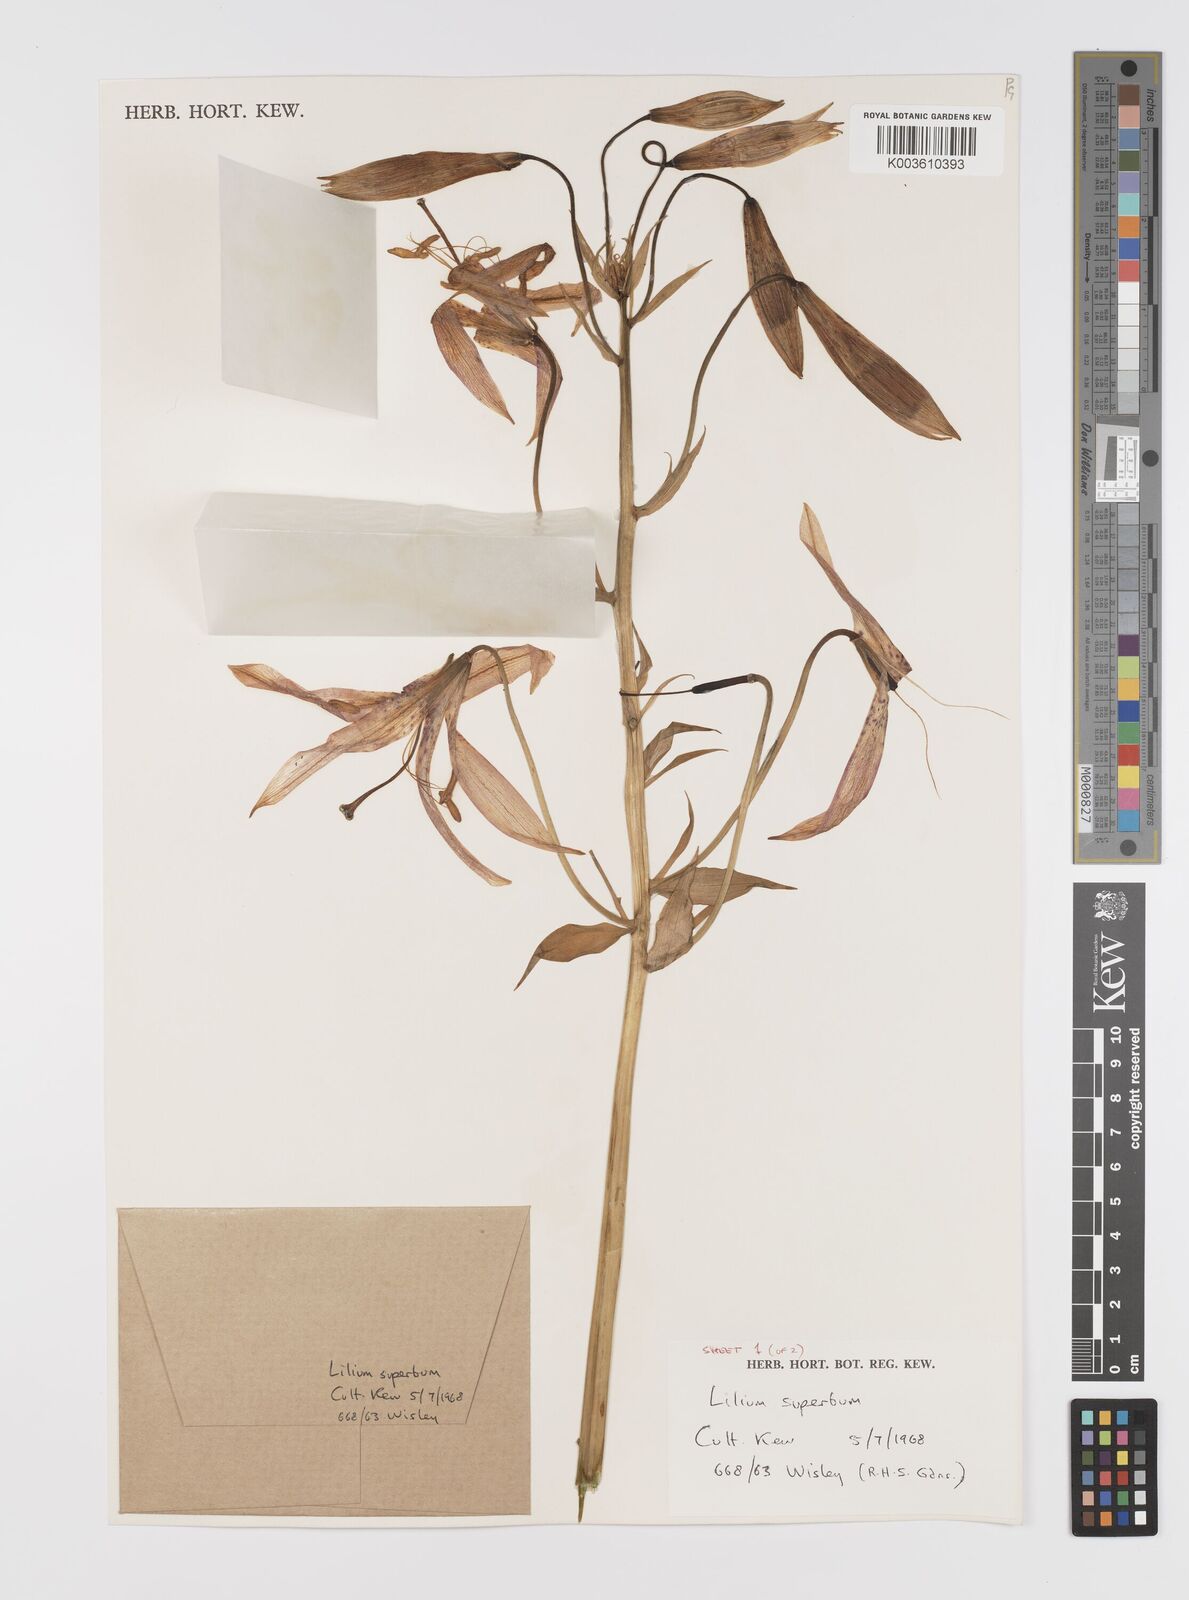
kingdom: Plantae
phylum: Tracheophyta
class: Liliopsida
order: Liliales
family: Liliaceae
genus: Lilium
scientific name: Lilium
